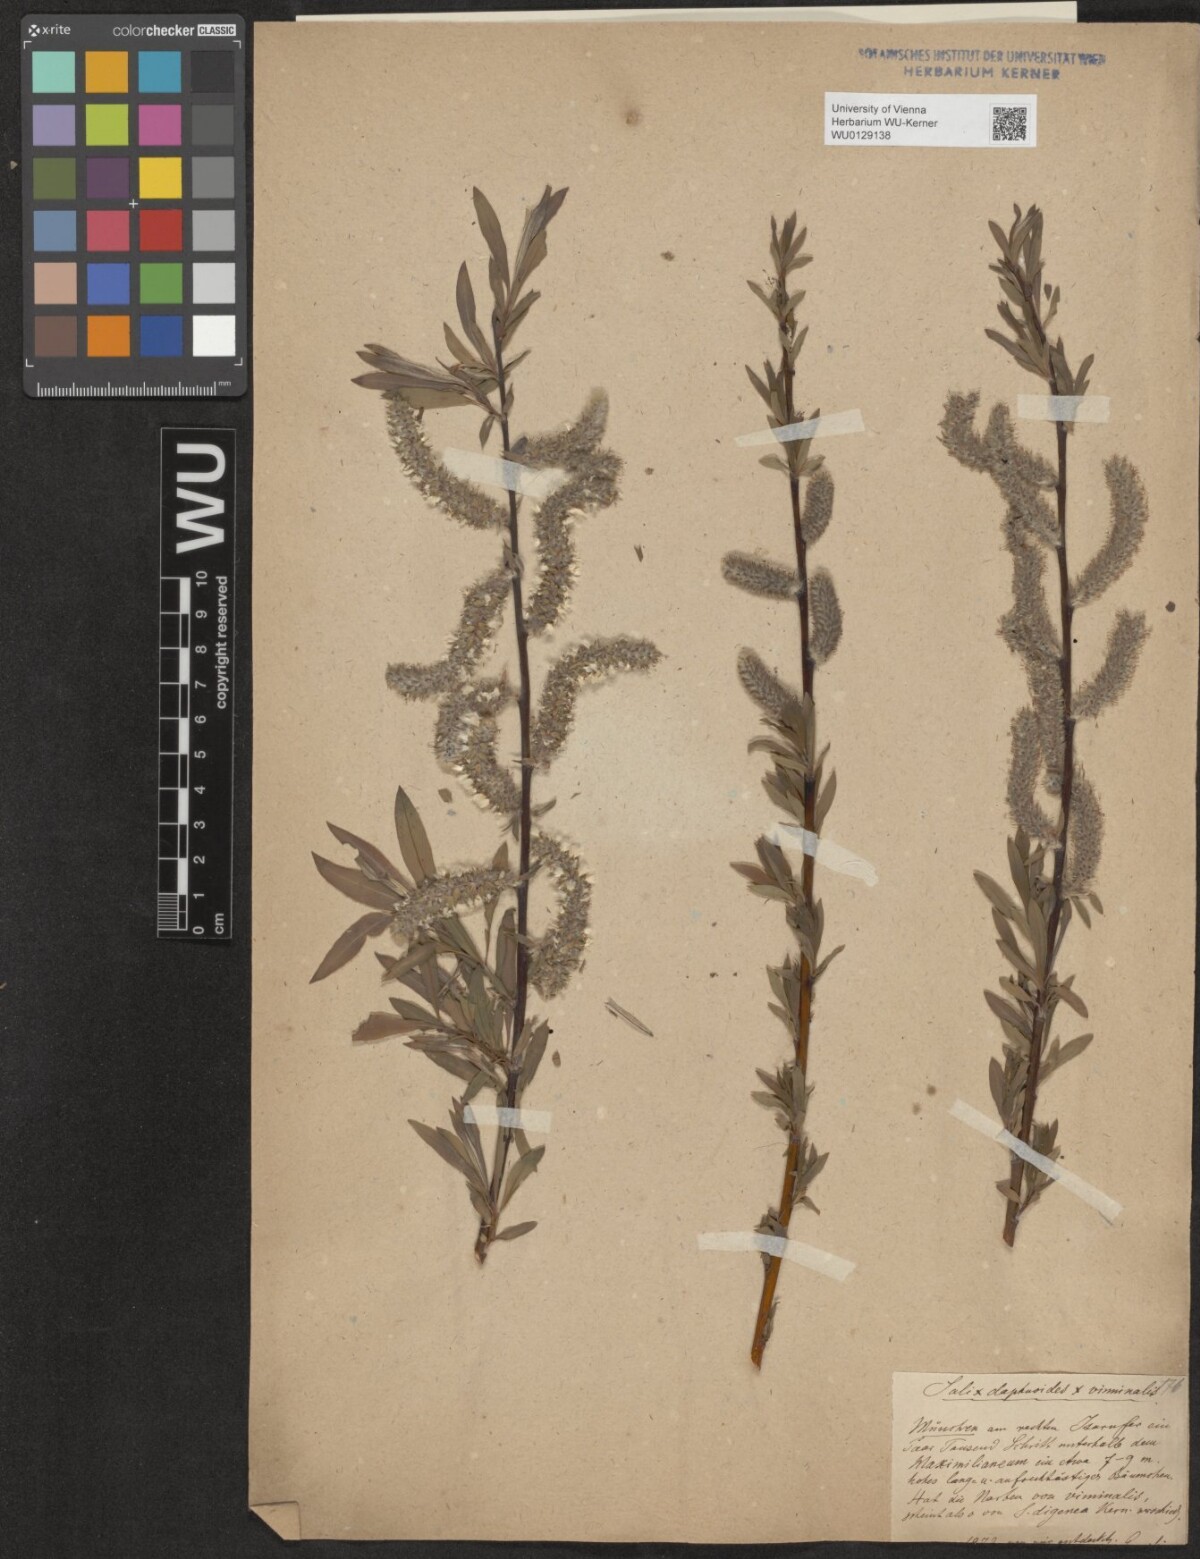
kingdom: Plantae
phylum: Tracheophyta
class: Magnoliopsida
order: Malpighiales
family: Salicaceae
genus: Salix
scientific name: Salix digenea
